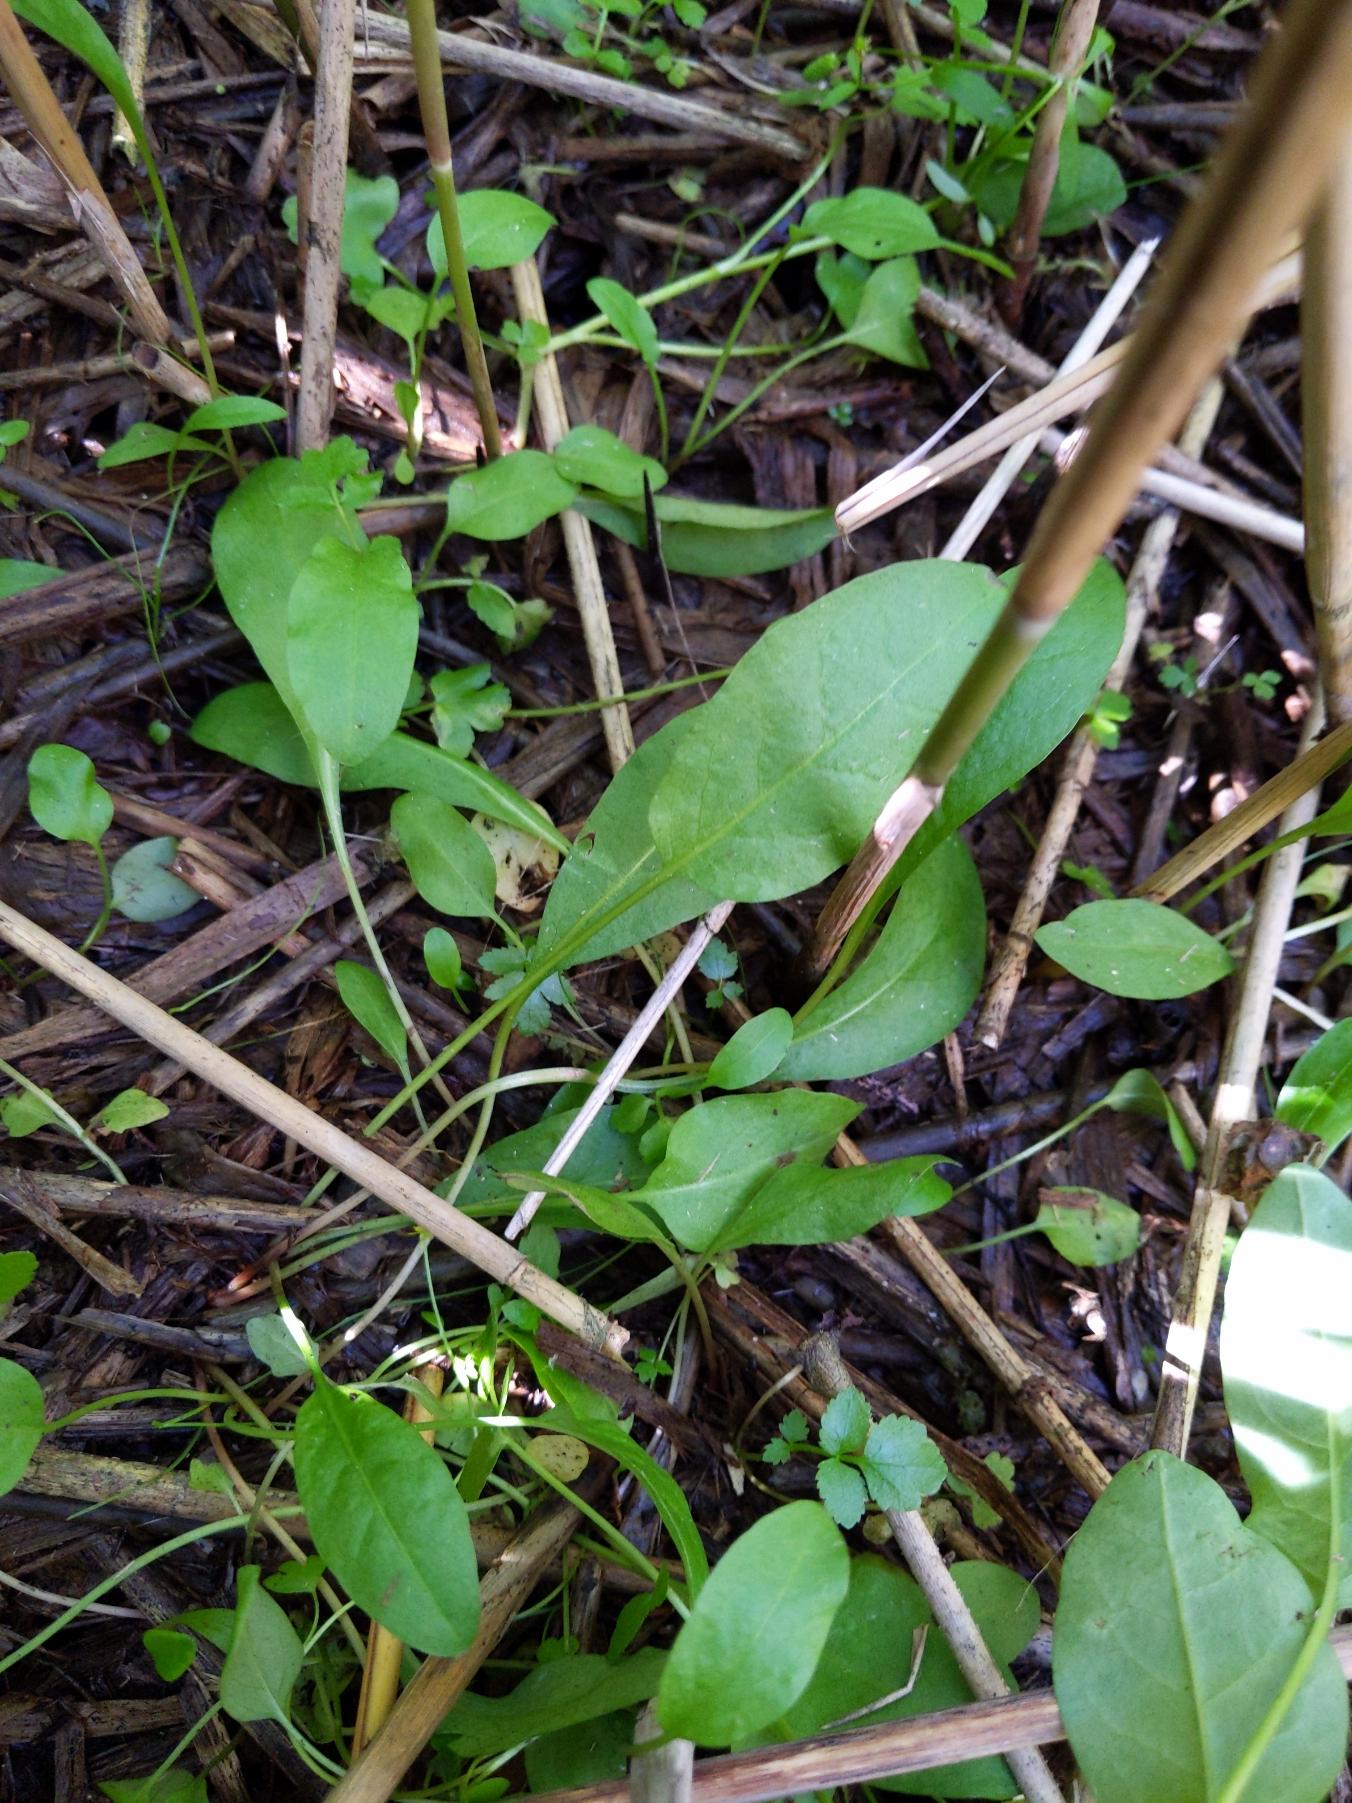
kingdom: Plantae
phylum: Tracheophyta
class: Magnoliopsida
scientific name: Magnoliopsida
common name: Tokimbladede
